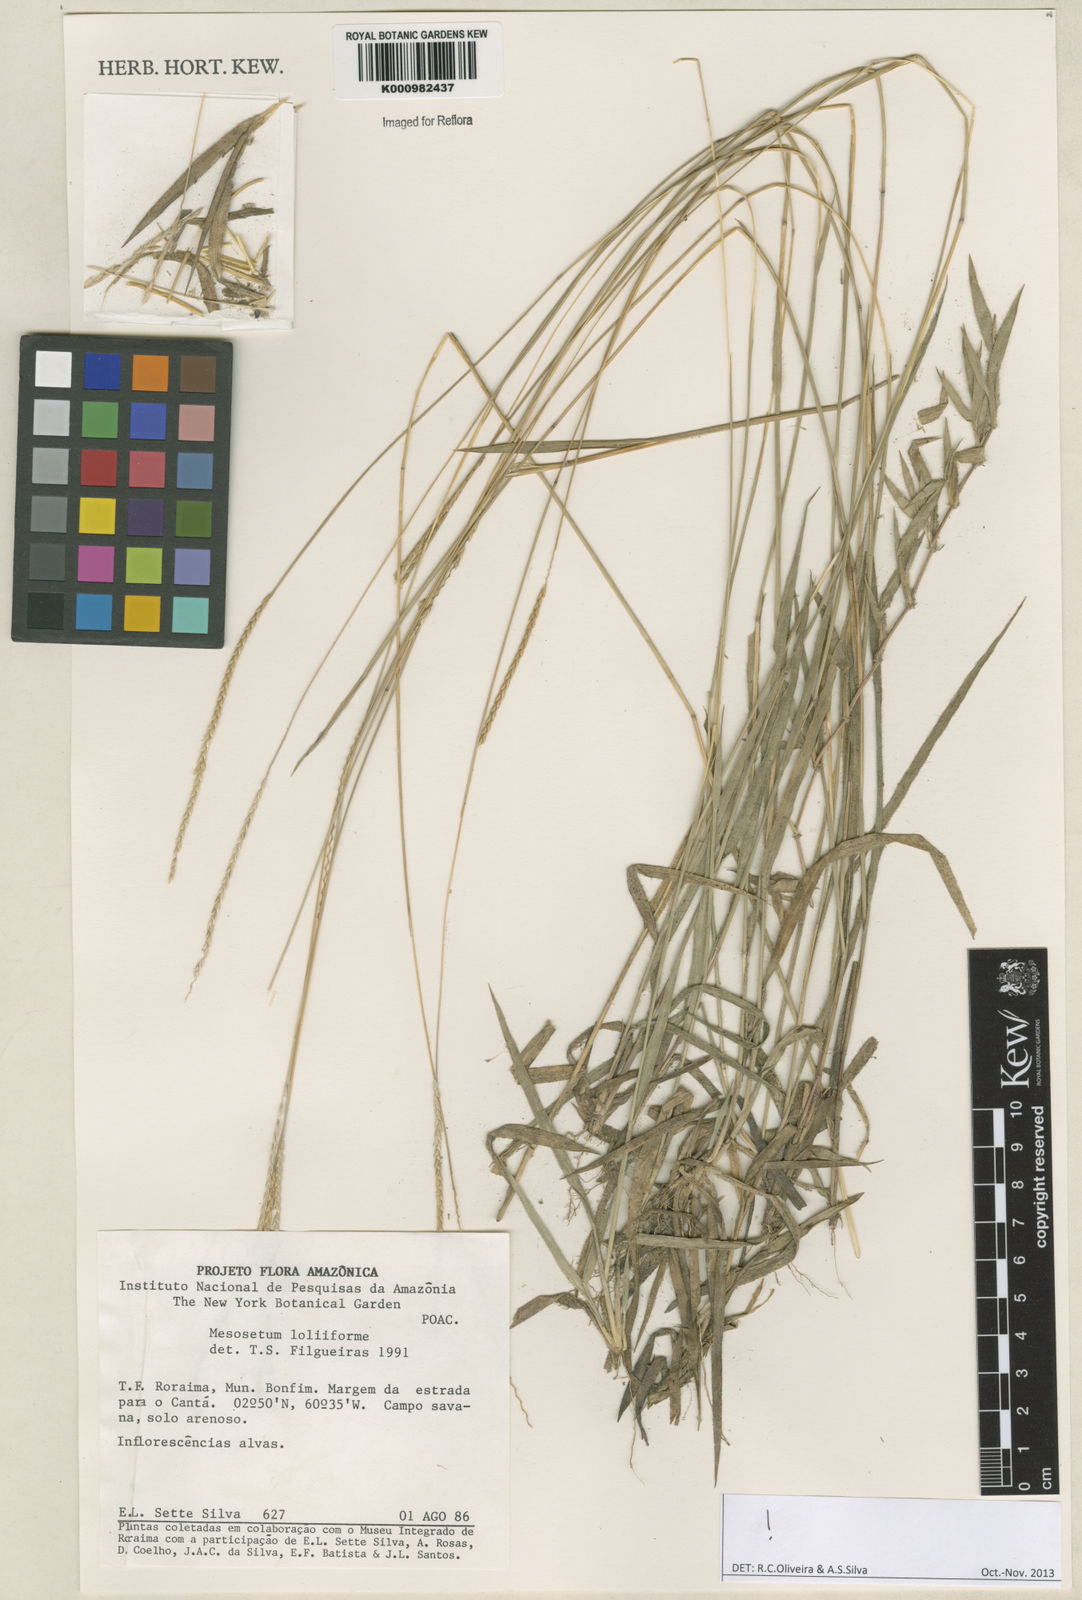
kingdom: Plantae
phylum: Tracheophyta
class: Liliopsida
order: Poales
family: Poaceae
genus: Mesosetum
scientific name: Mesosetum
